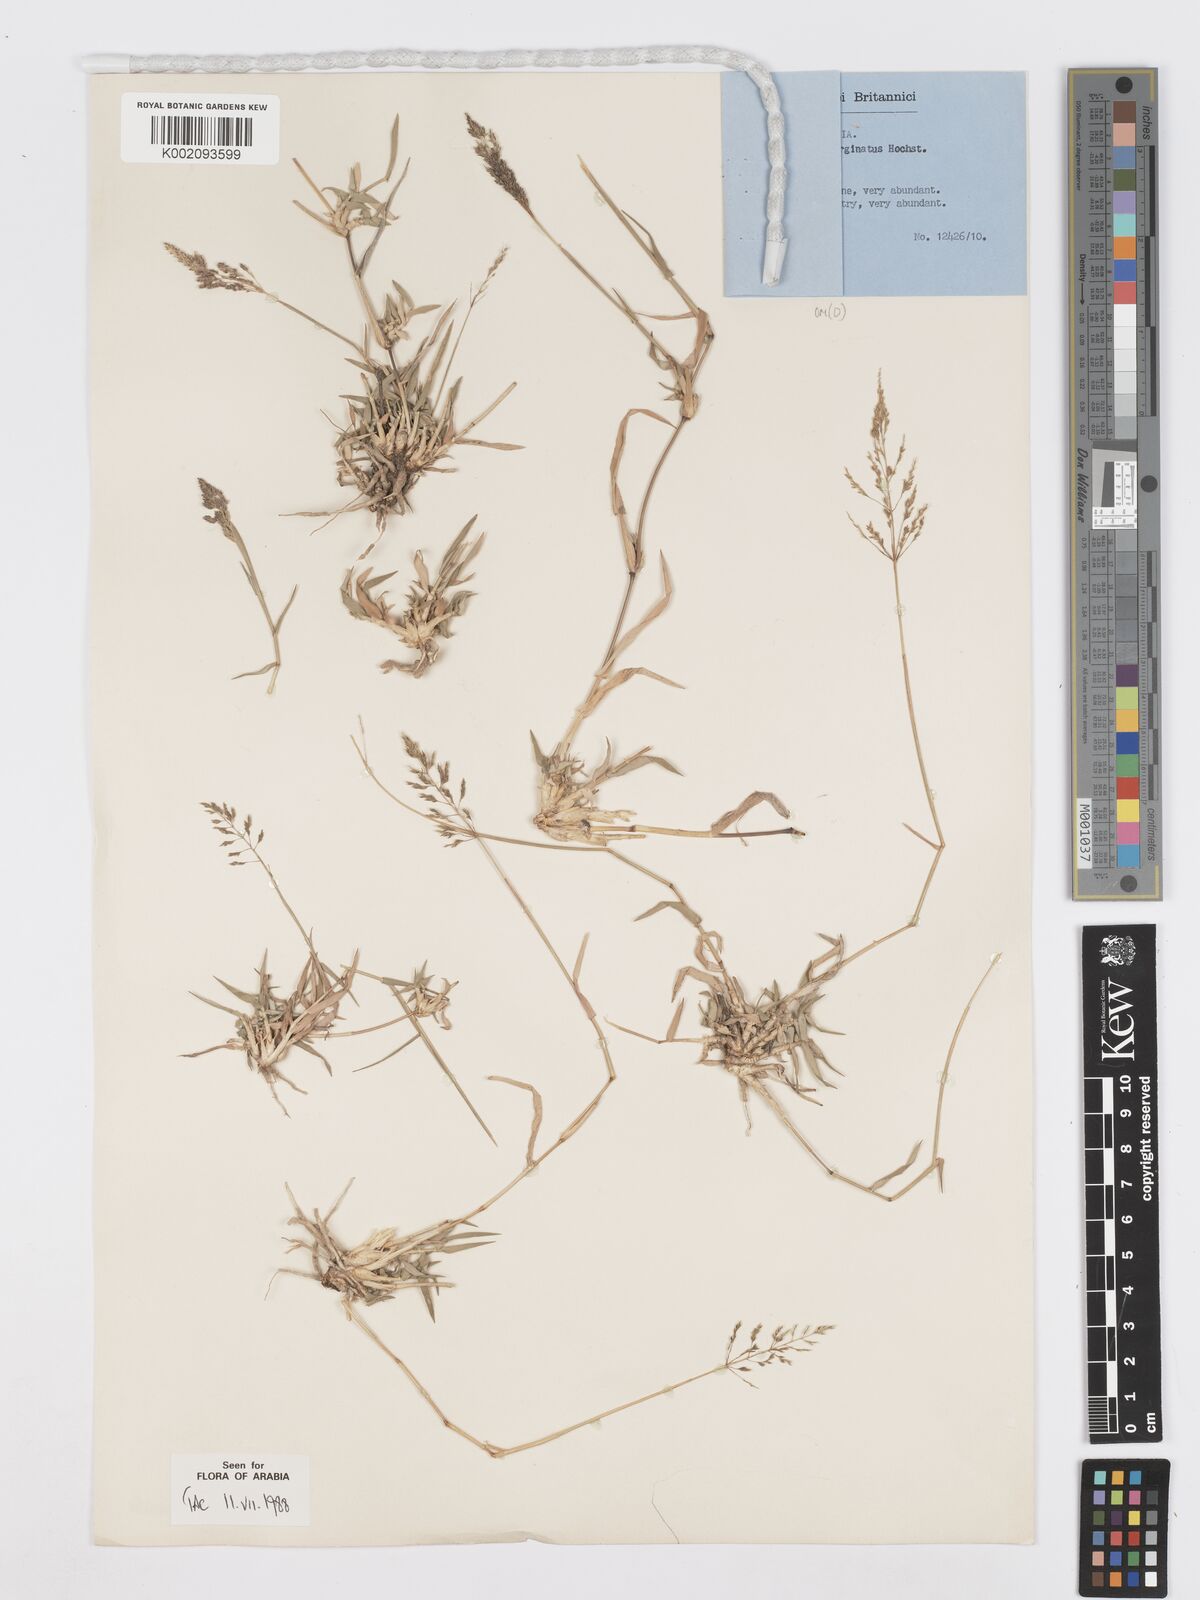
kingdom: Plantae
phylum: Tracheophyta
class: Liliopsida
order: Poales
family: Poaceae
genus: Sporobolus
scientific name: Sporobolus gloeoclados
